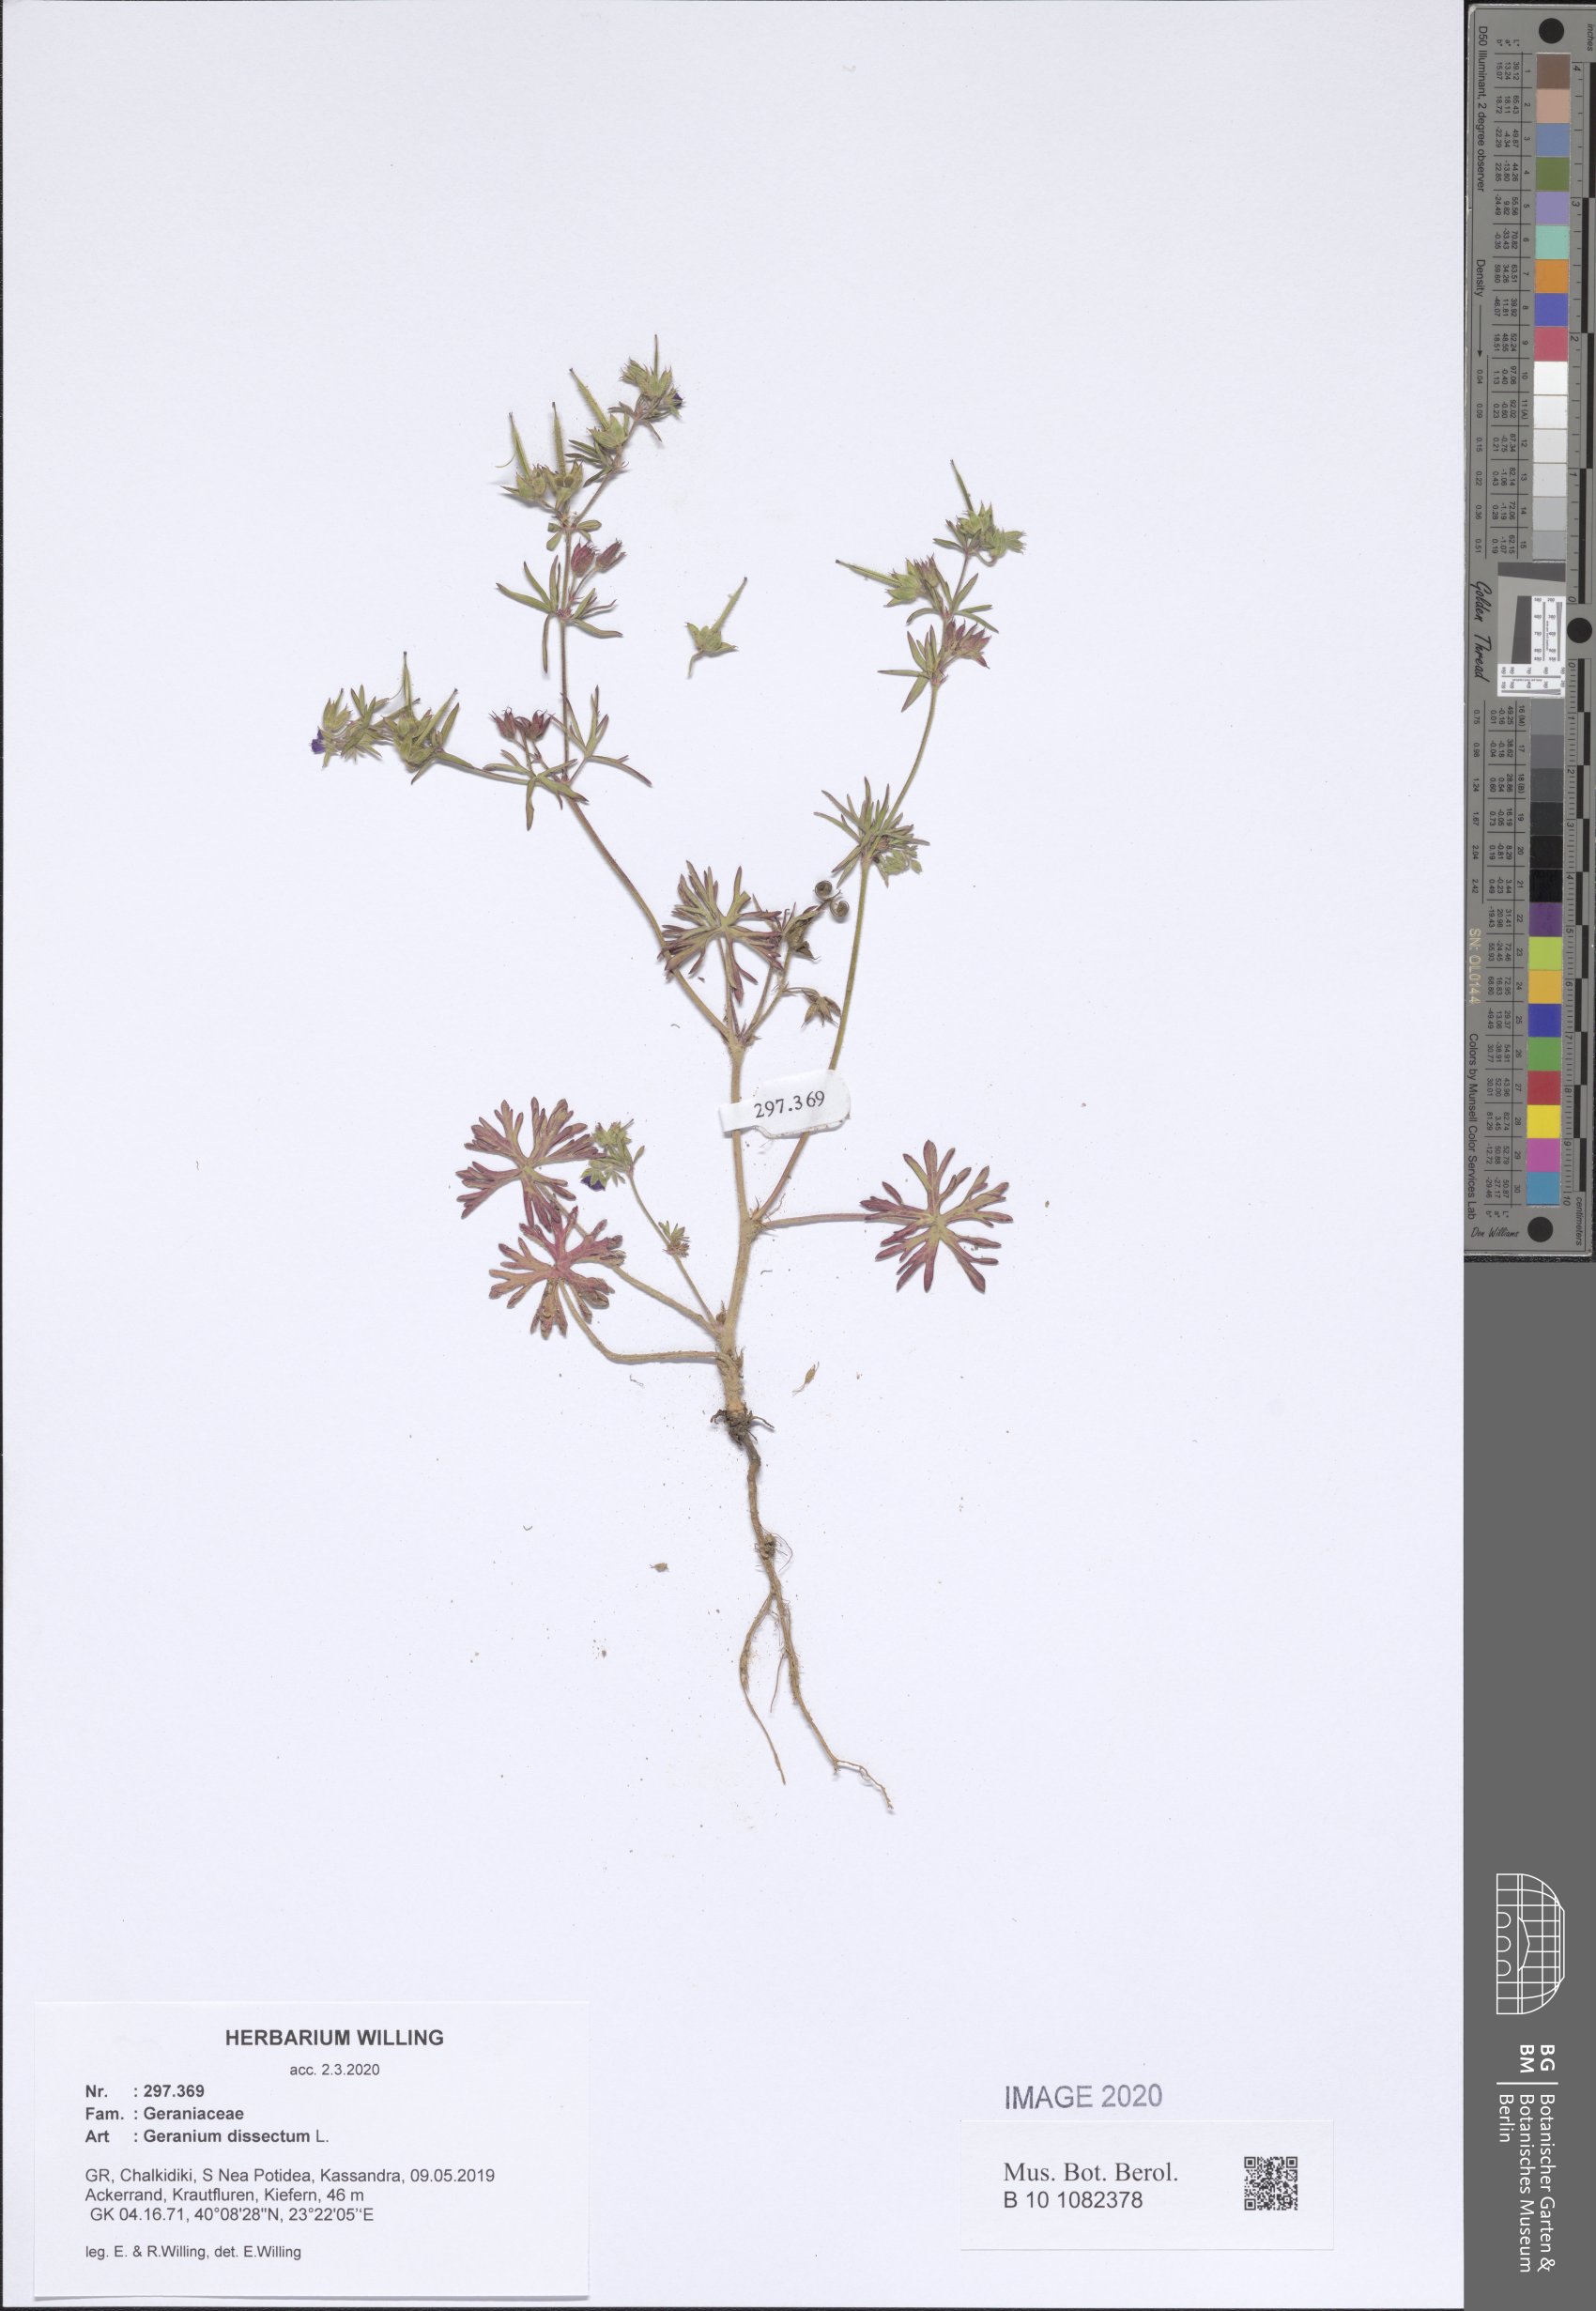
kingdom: Plantae
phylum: Tracheophyta
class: Magnoliopsida
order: Geraniales
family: Geraniaceae
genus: Geranium
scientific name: Geranium dissectum
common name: Cut-leaved crane's-bill
